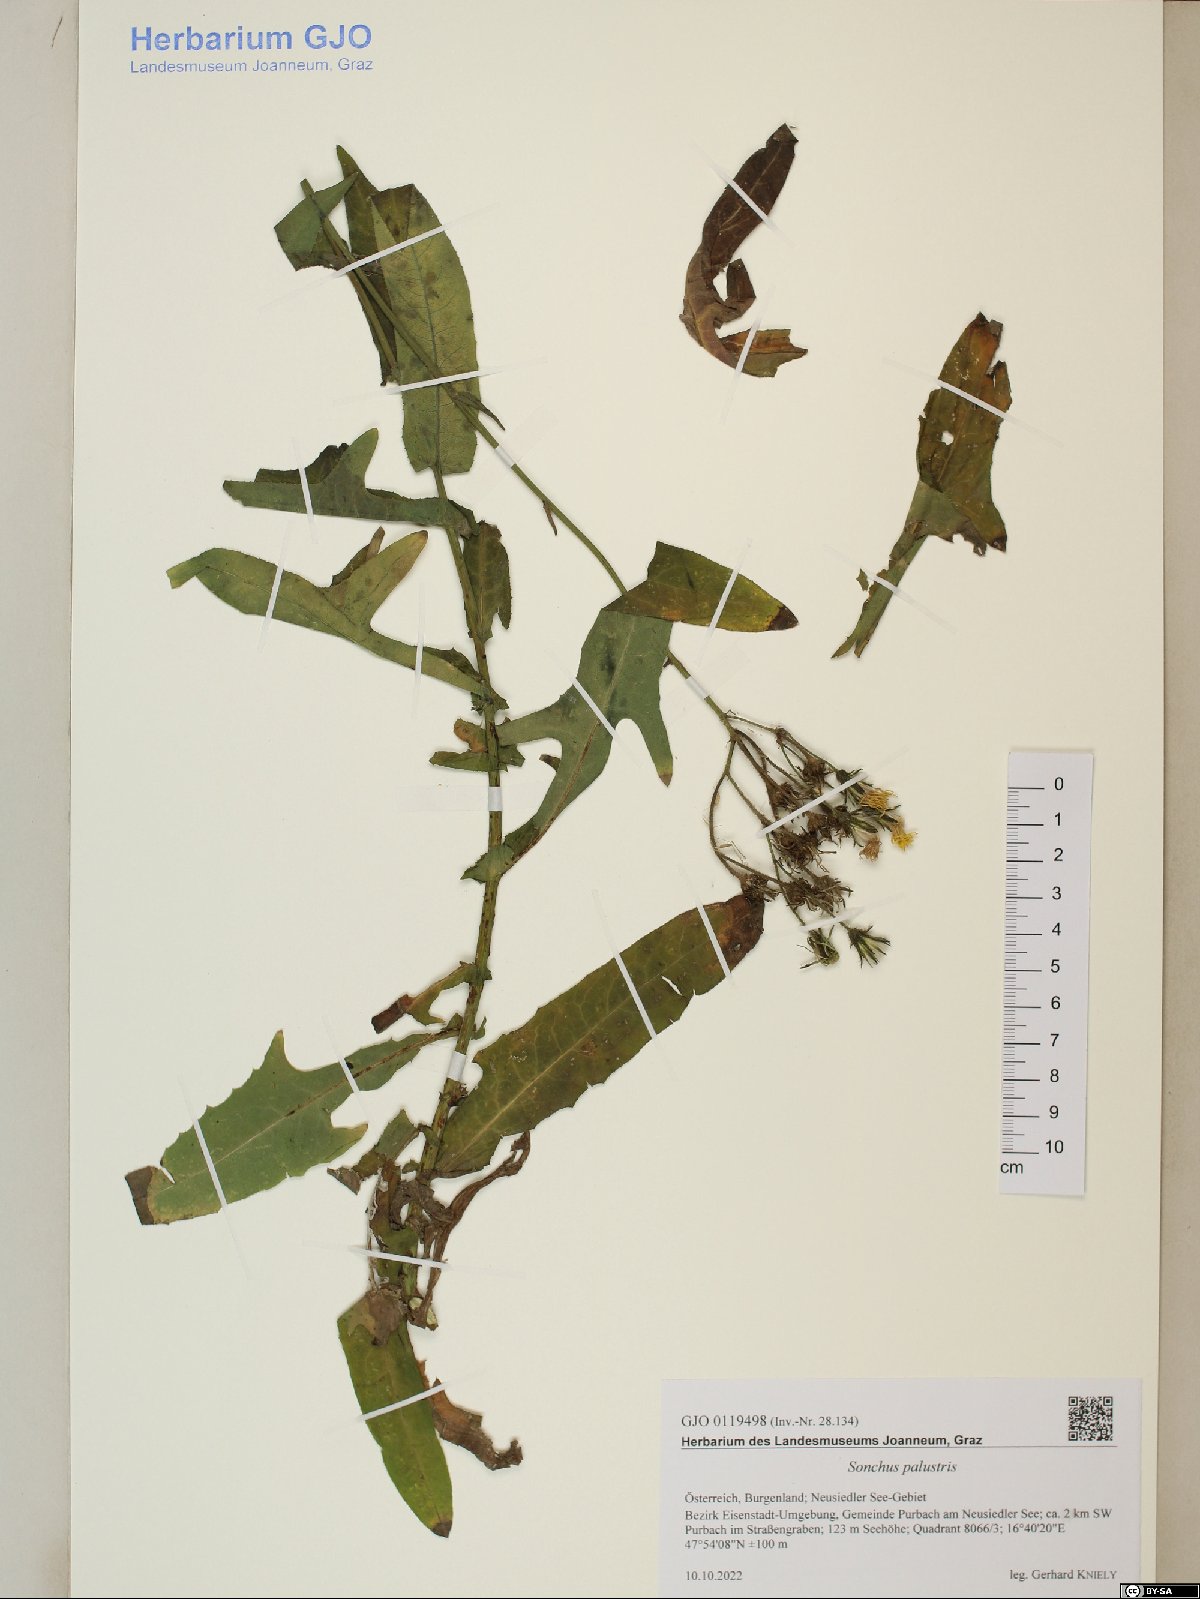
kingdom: Plantae
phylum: Tracheophyta
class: Magnoliopsida
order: Asterales
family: Asteraceae
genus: Sonchus
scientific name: Sonchus palustris
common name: Marsh sow-thistle
